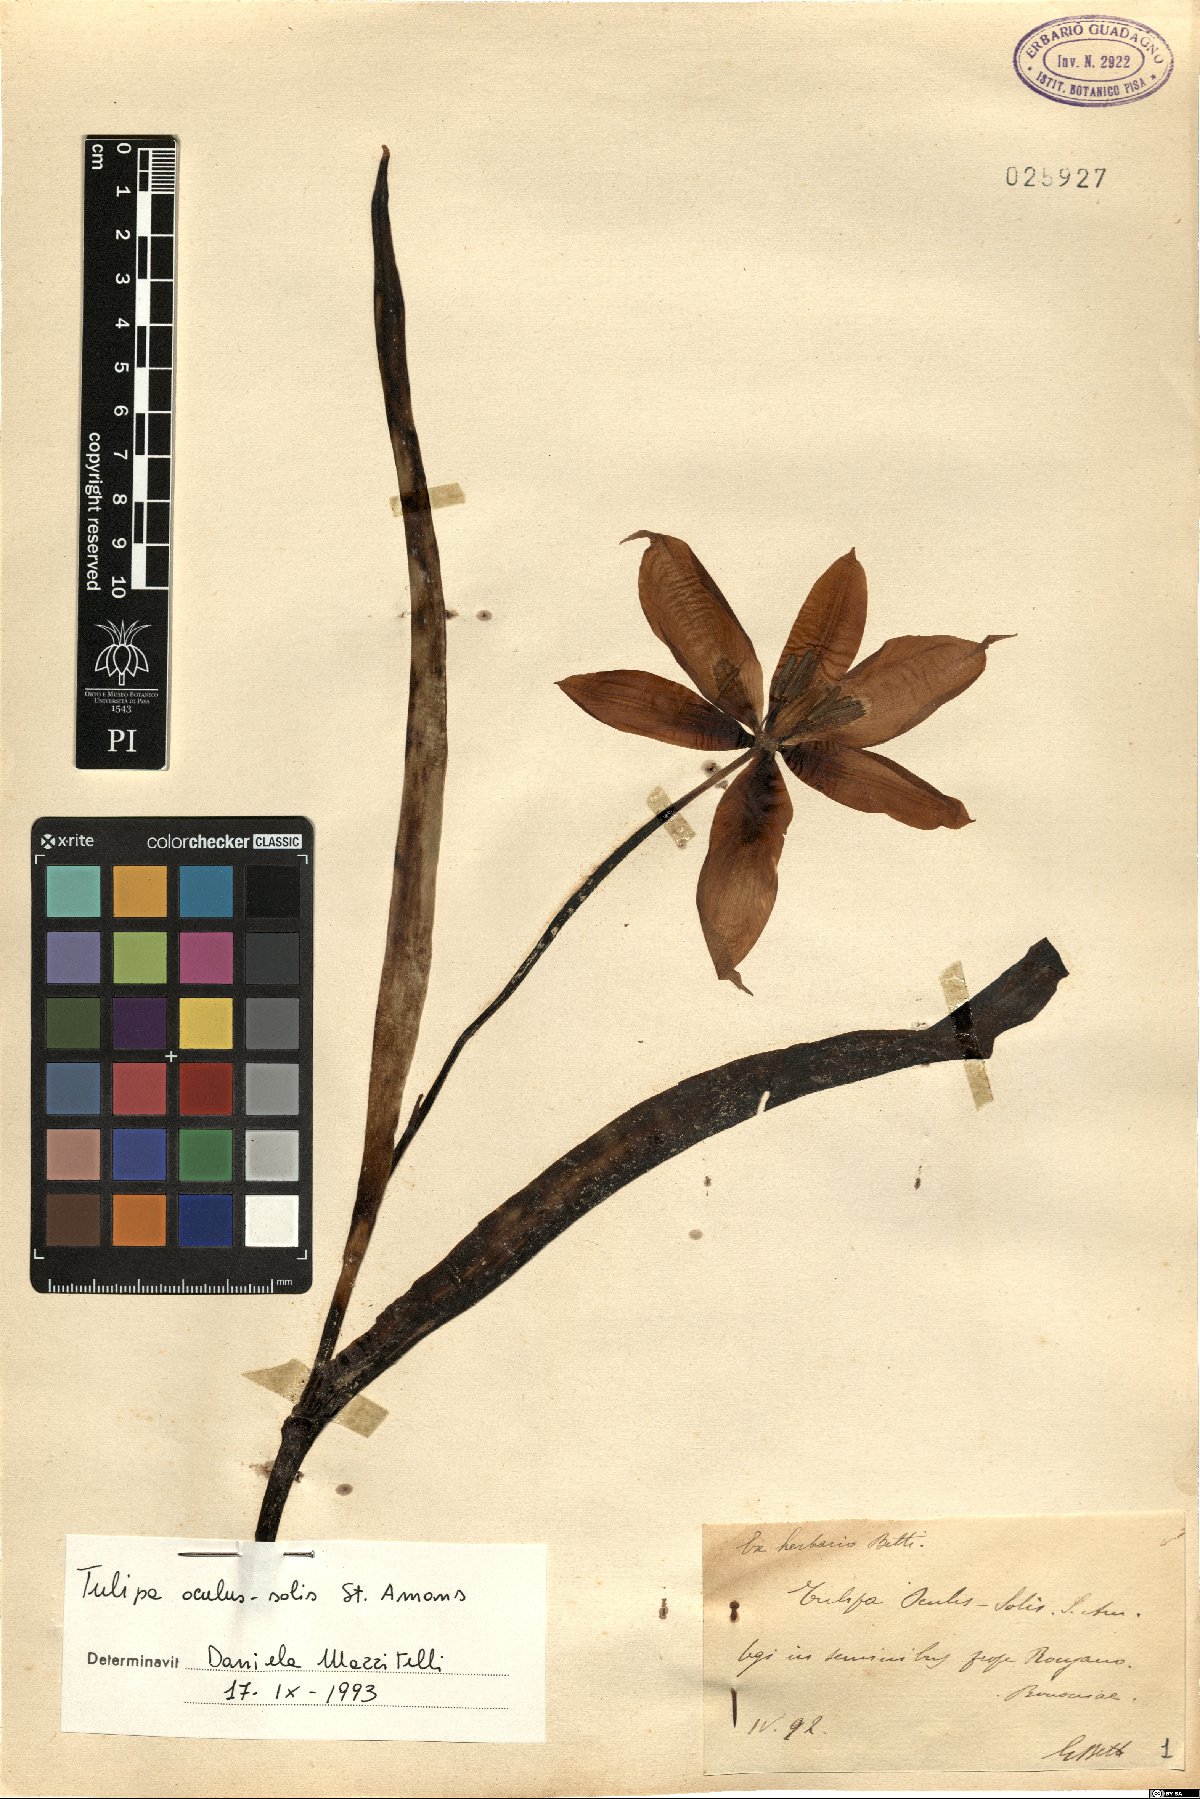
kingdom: Plantae
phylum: Tracheophyta
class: Liliopsida
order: Liliales
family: Liliaceae
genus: Tulipa
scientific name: Tulipa agenensis
